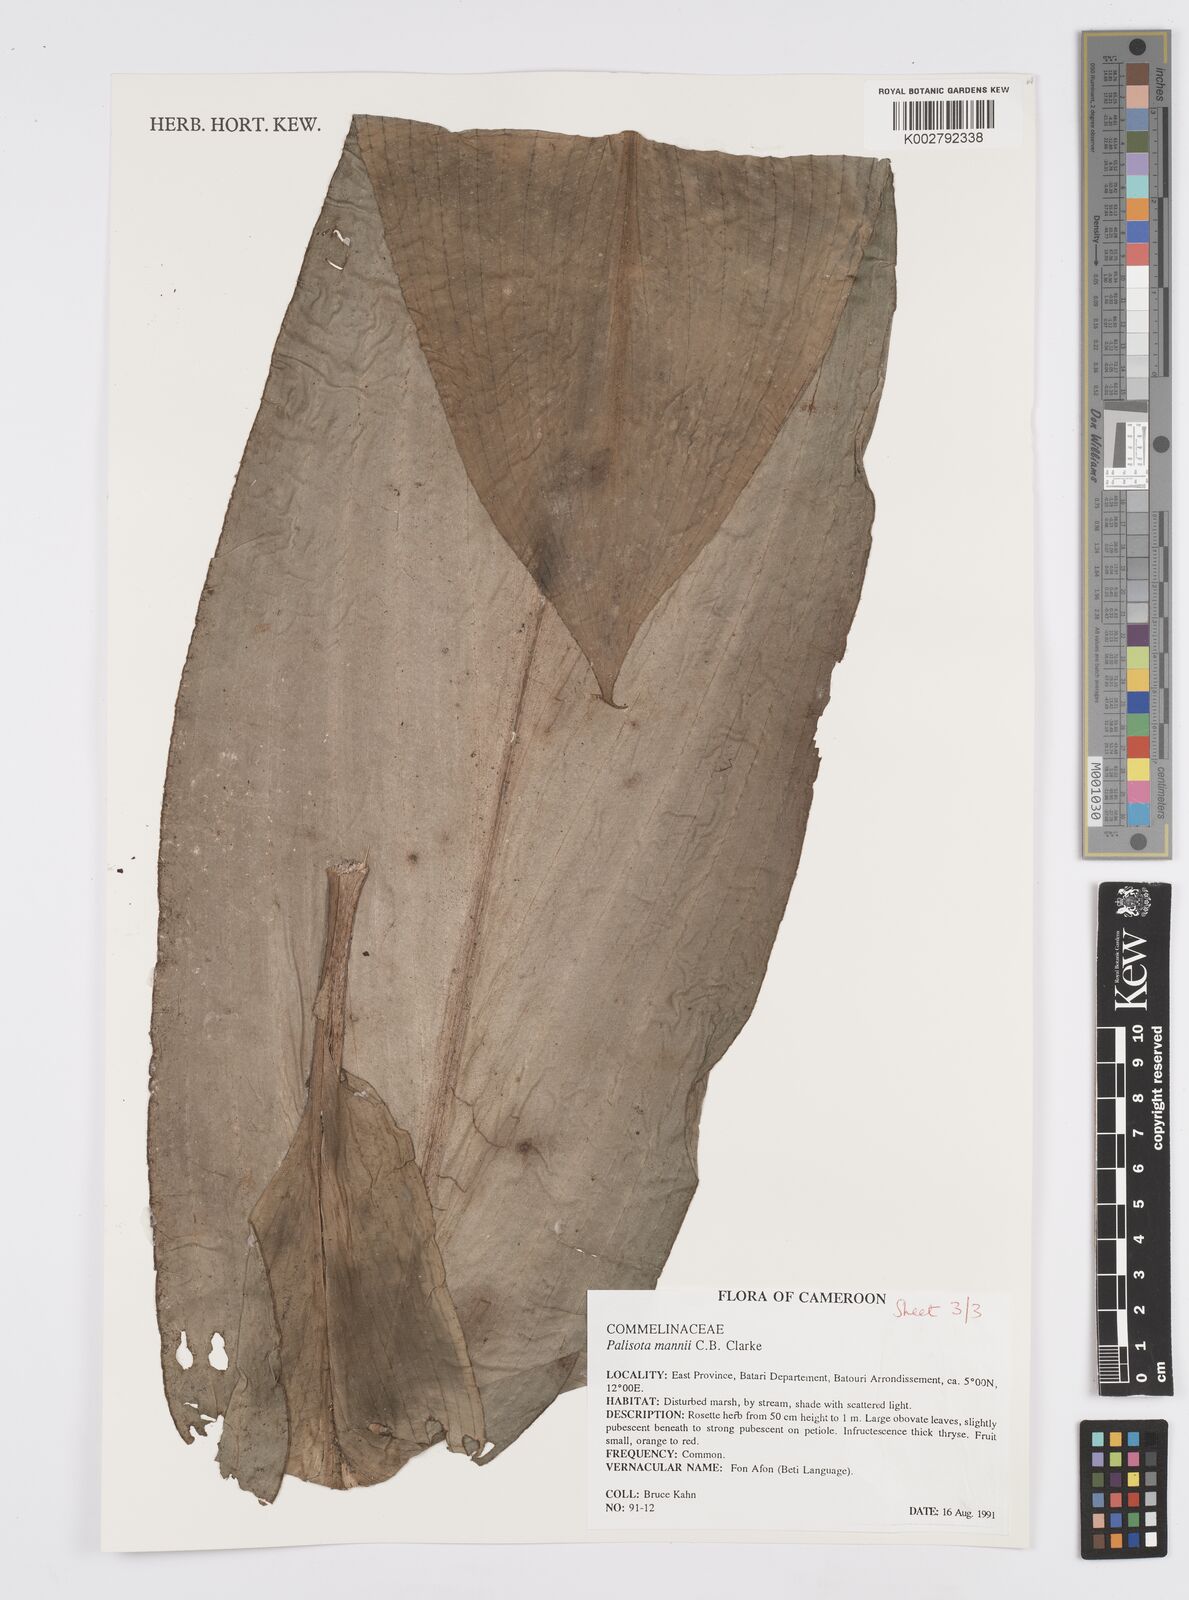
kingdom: Plantae
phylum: Tracheophyta
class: Liliopsida
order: Commelinales
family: Commelinaceae
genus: Palisota
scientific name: Palisota mannii
